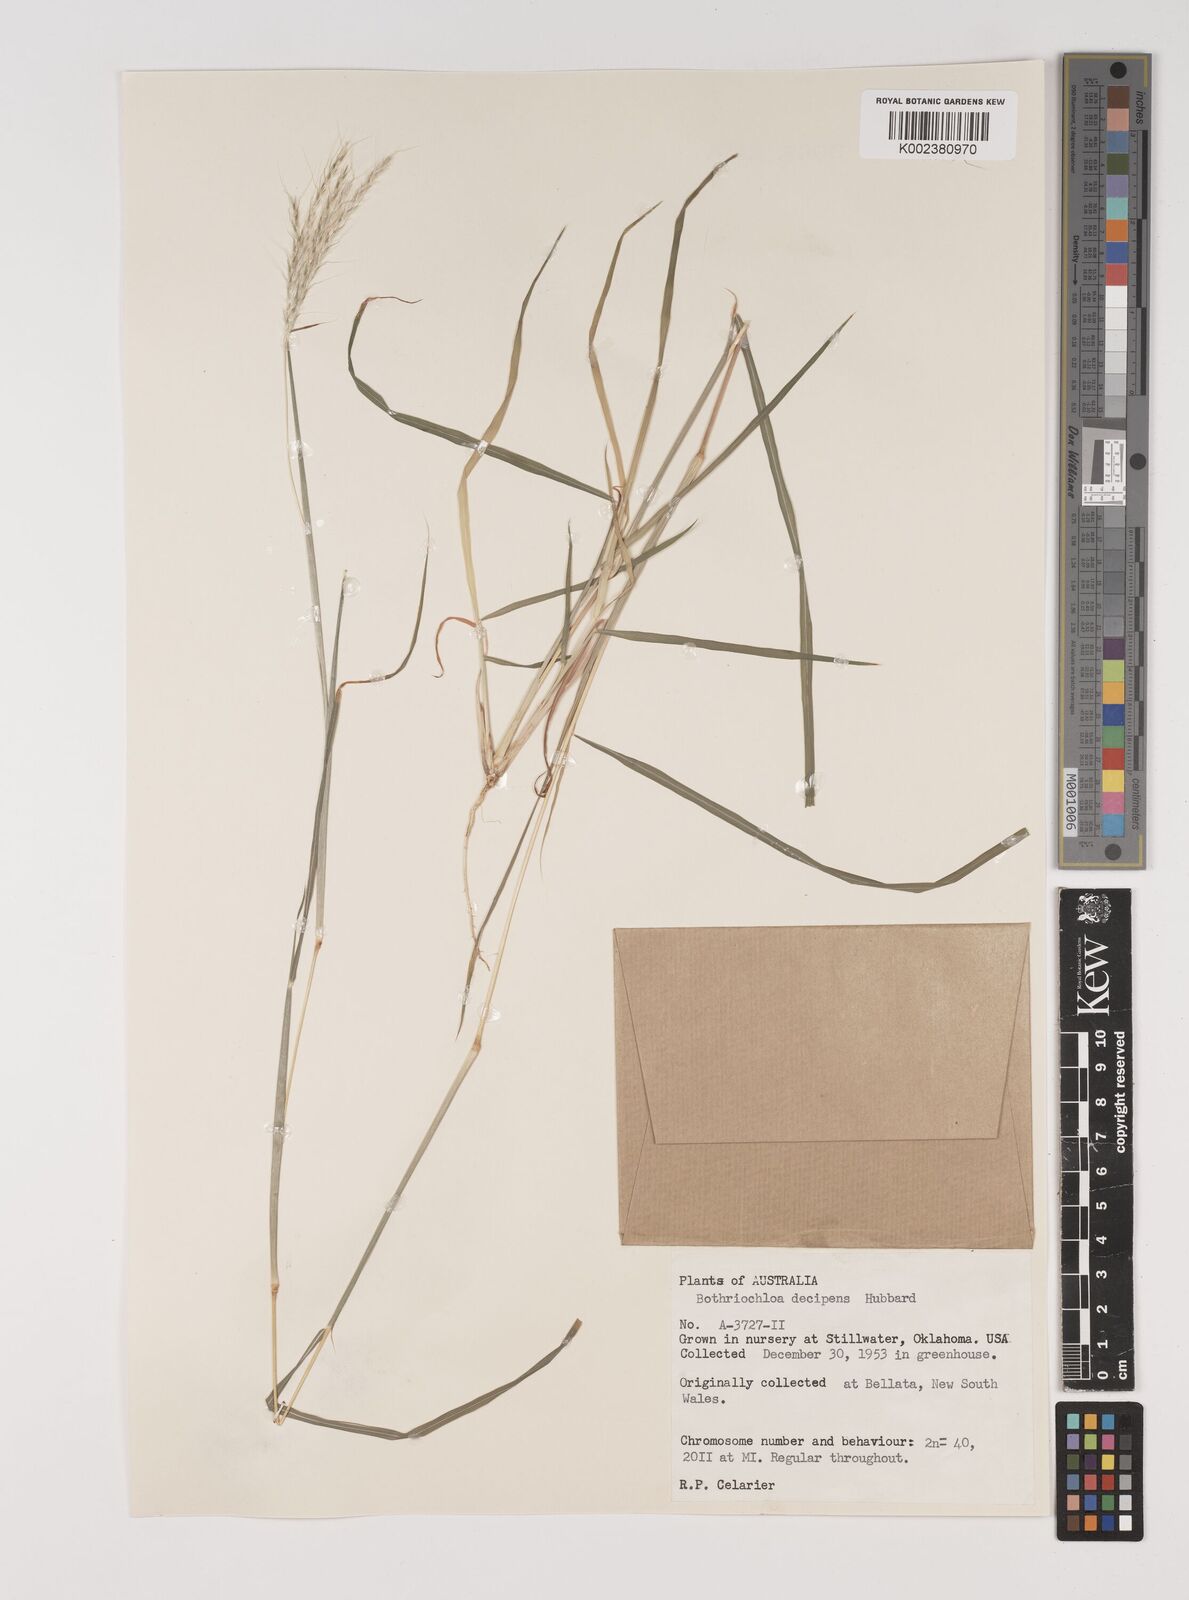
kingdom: Plantae
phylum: Tracheophyta
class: Liliopsida
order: Poales
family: Poaceae
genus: Bothriochloa
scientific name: Bothriochloa decipiens
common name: Pitted-bluegrass
